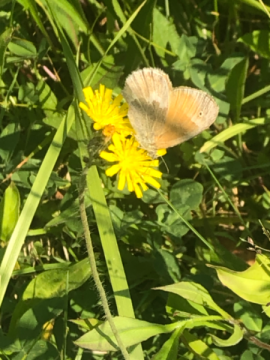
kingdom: Animalia
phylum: Arthropoda
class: Insecta
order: Lepidoptera
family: Nymphalidae
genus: Coenonympha
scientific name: Coenonympha tullia
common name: Large Heath
